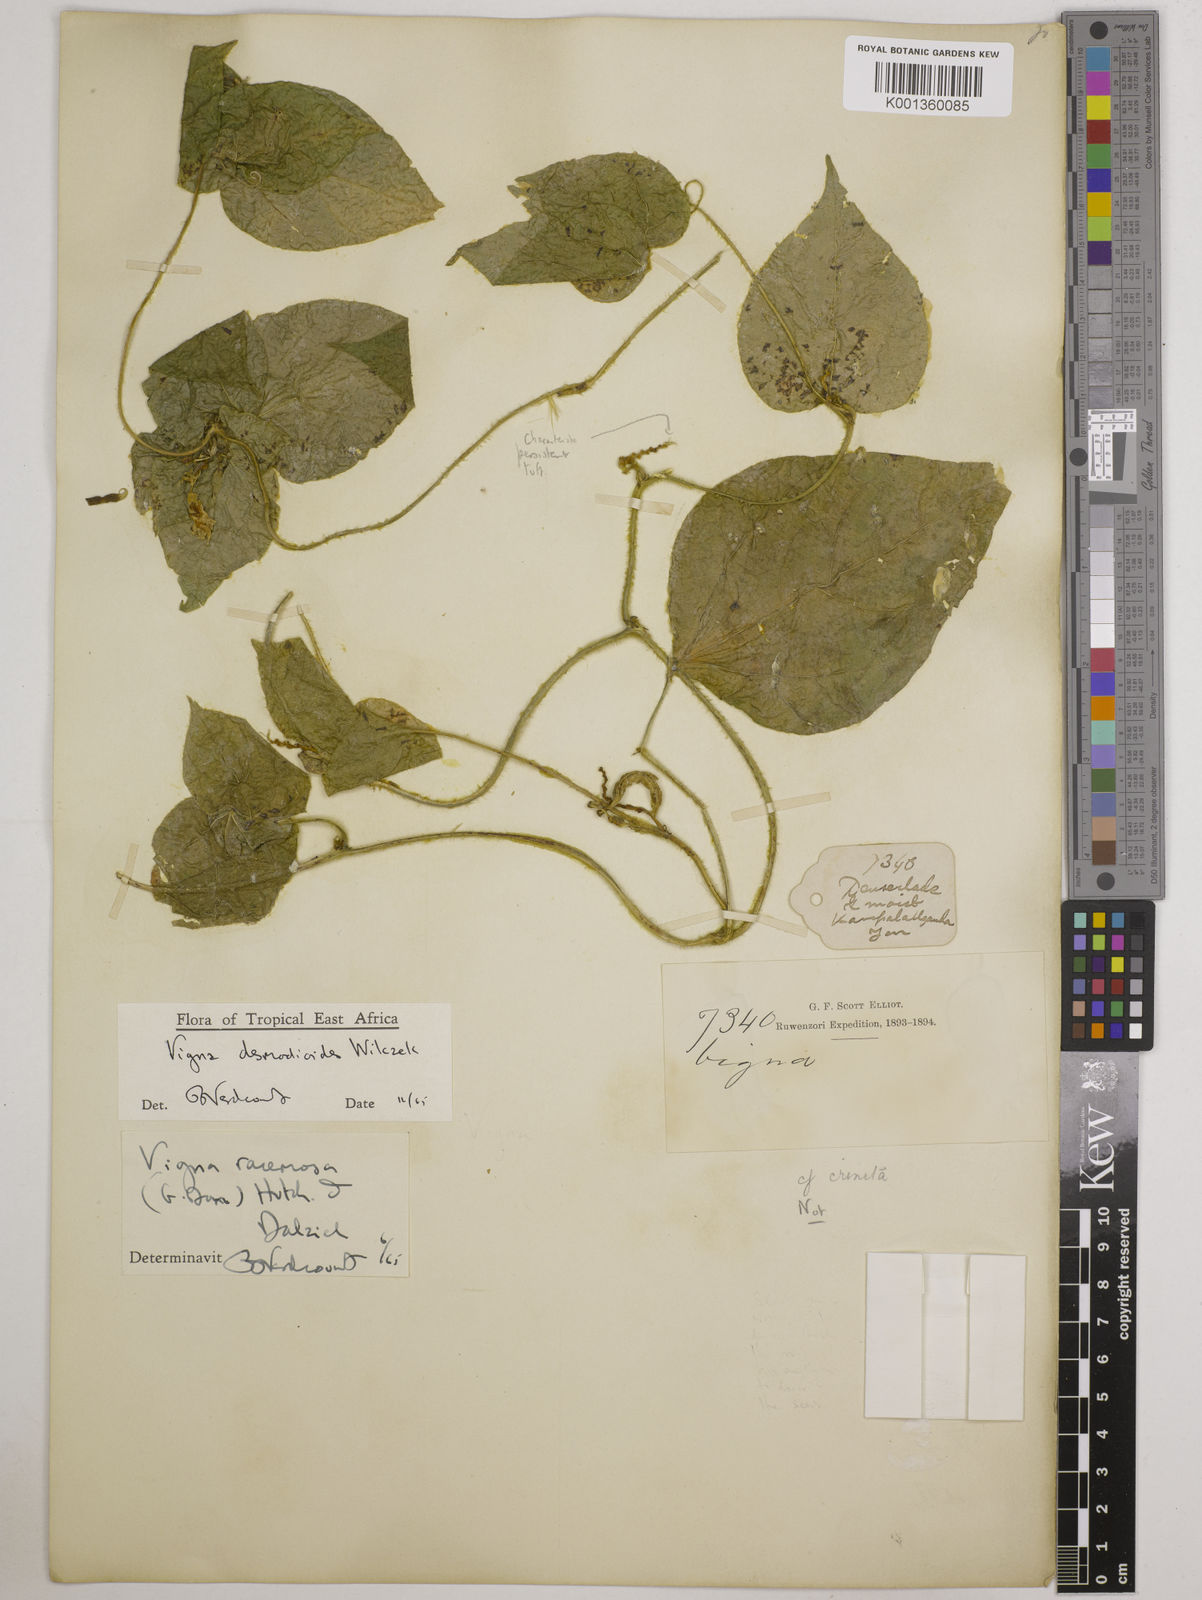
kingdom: Plantae
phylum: Tracheophyta
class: Magnoliopsida
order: Fabales
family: Fabaceae
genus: Vigna
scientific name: Vigna gracilis
